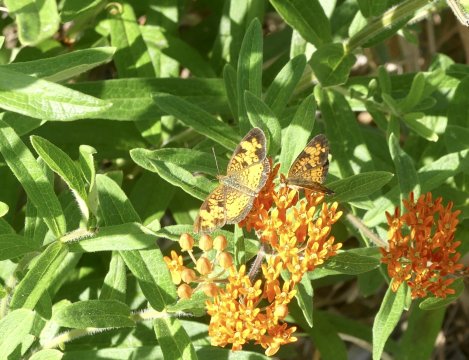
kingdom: Animalia
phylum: Arthropoda
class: Insecta
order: Lepidoptera
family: Nymphalidae
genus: Phyciodes
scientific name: Phyciodes tharos
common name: Pearl Crescent
